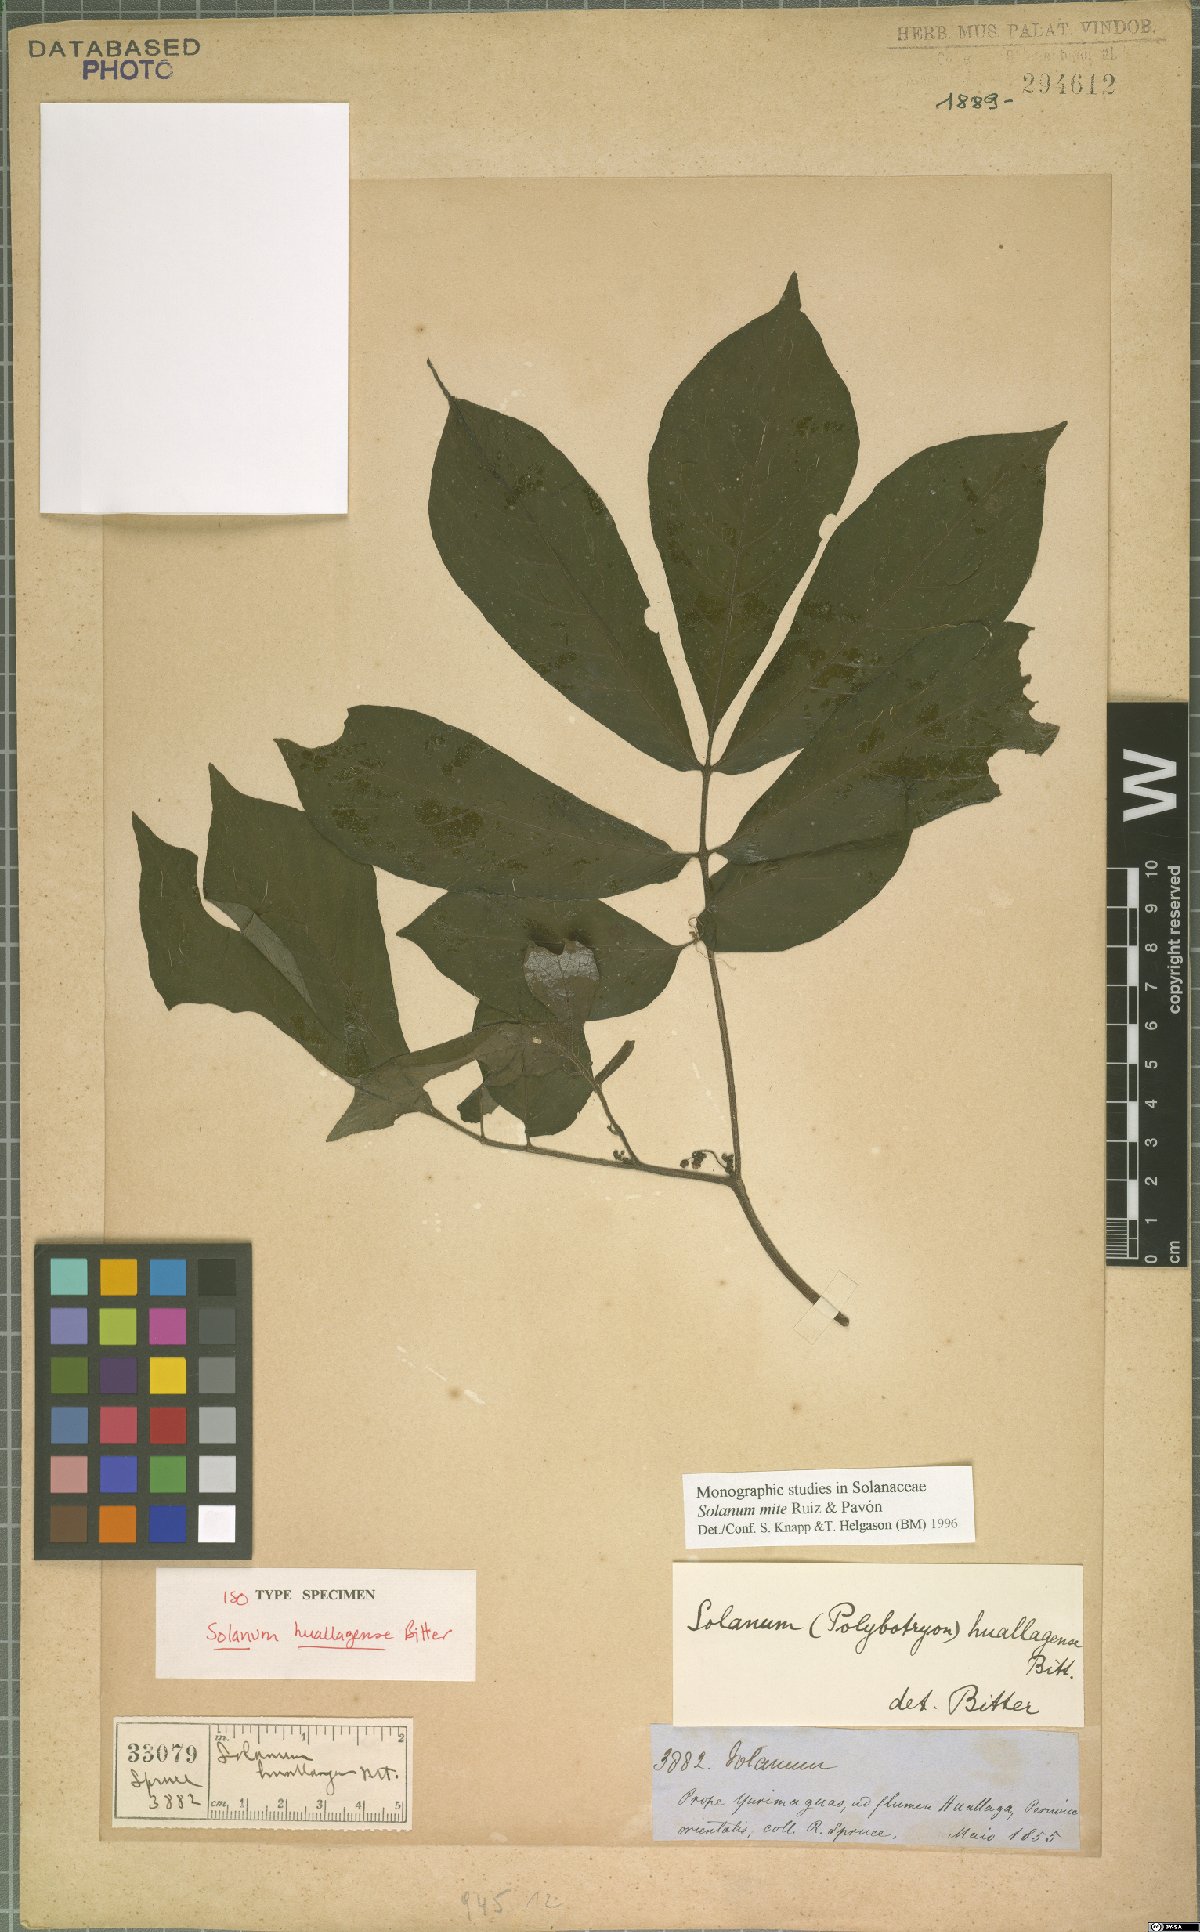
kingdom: Plantae
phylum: Tracheophyta
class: Magnoliopsida
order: Solanales
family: Solanaceae
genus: Solanum
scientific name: Solanum mite
